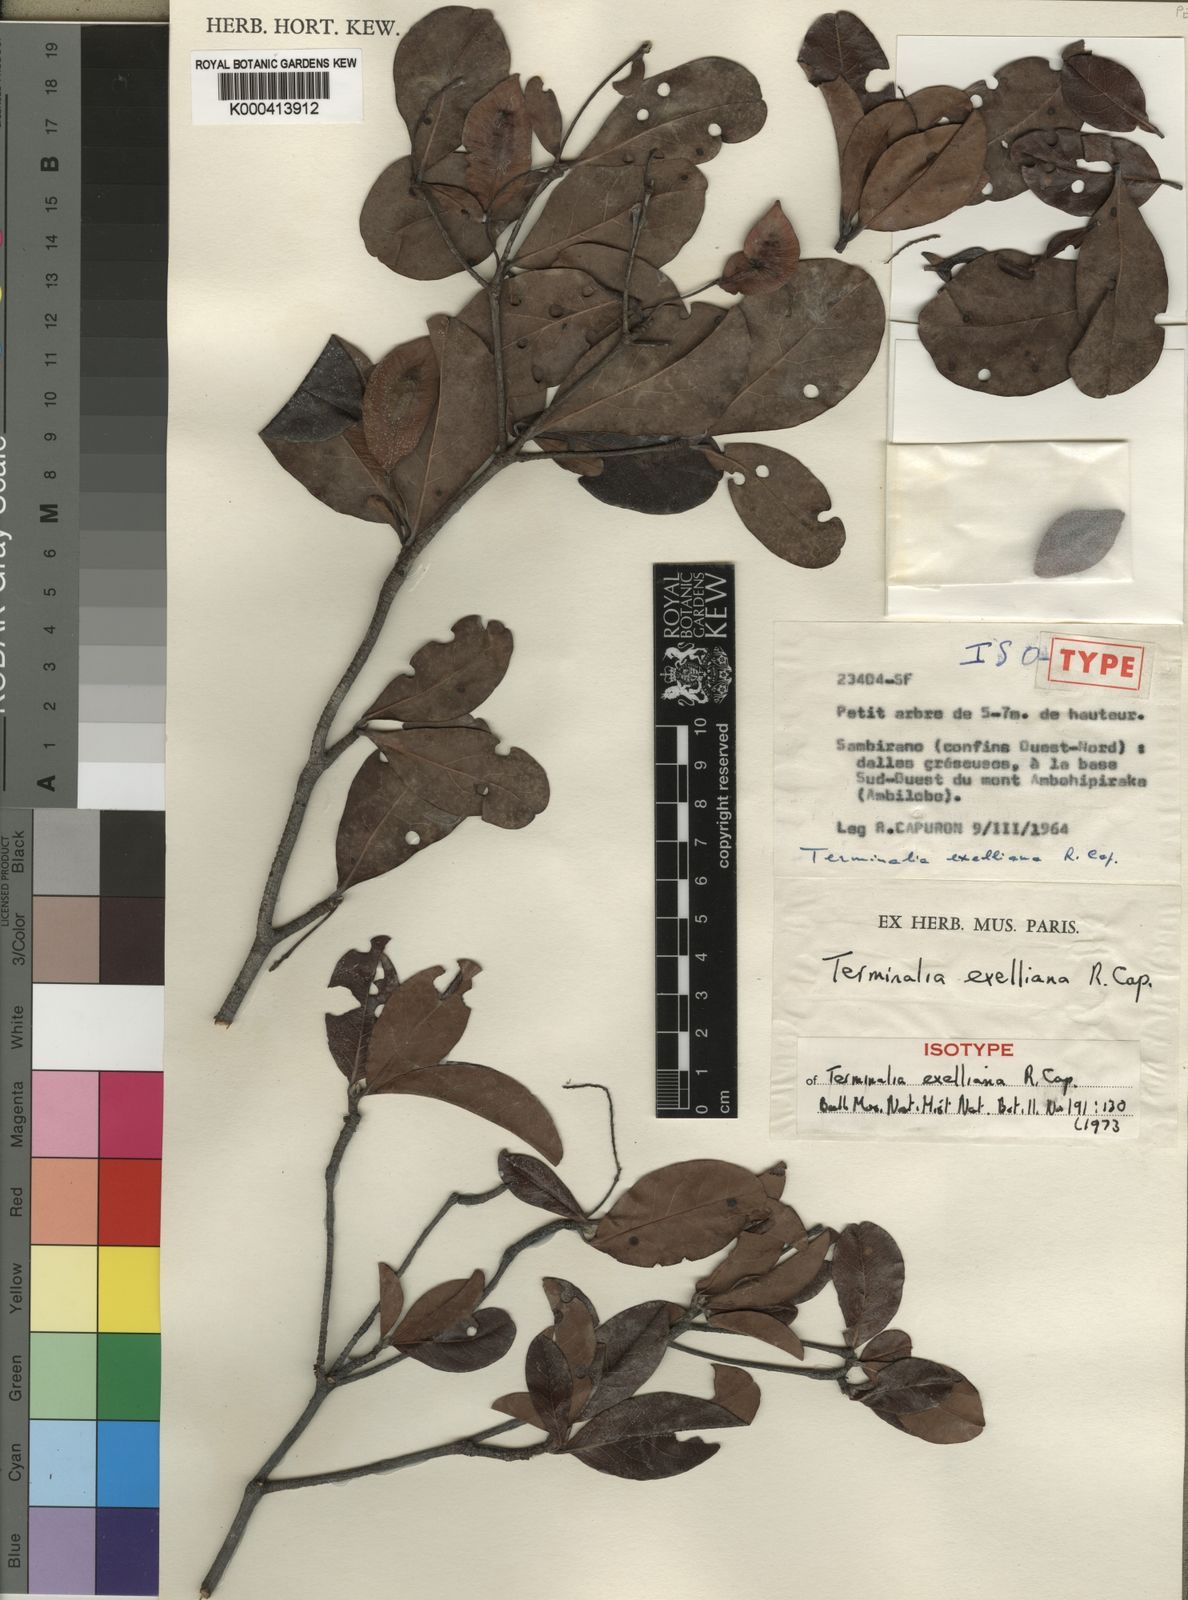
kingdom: Plantae
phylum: Tracheophyta
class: Magnoliopsida
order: Myrtales
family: Combretaceae
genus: Terminalia
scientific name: Terminalia exelliana
